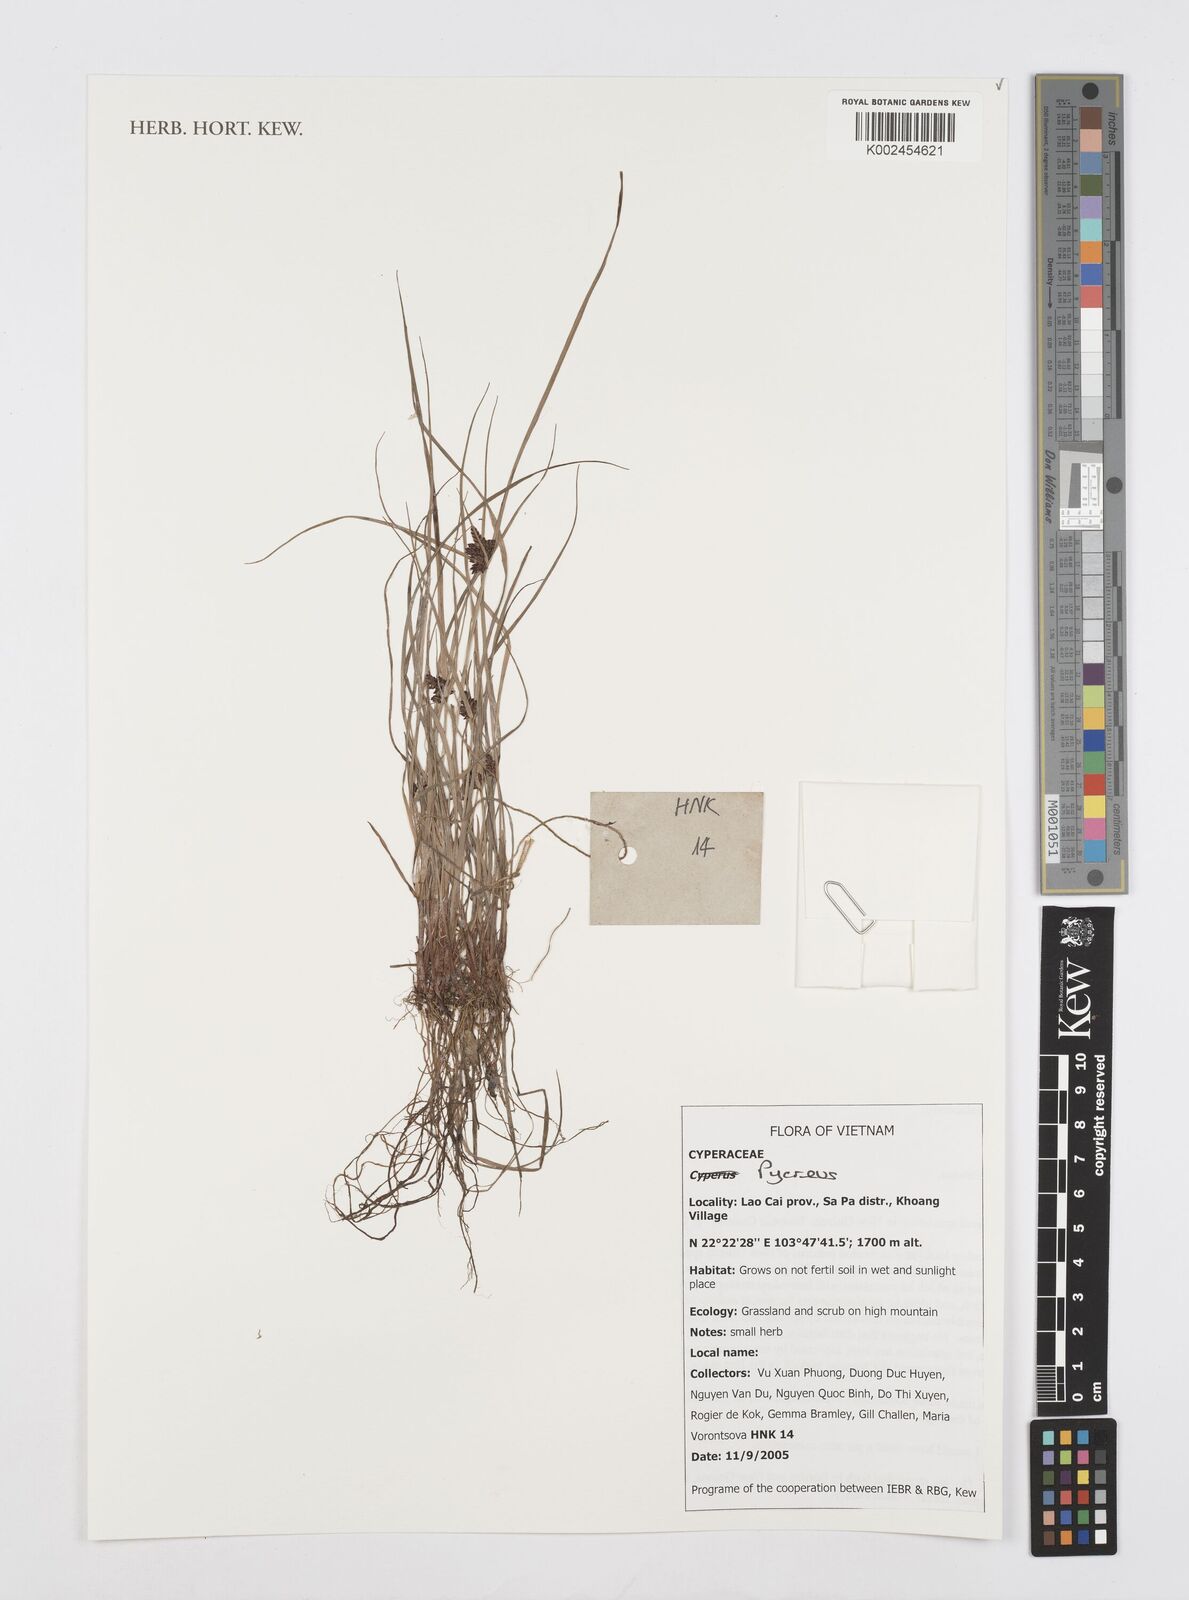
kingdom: Plantae
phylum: Tracheophyta
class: Liliopsida
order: Poales
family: Cyperaceae
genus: Cyperus
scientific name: Cyperus
